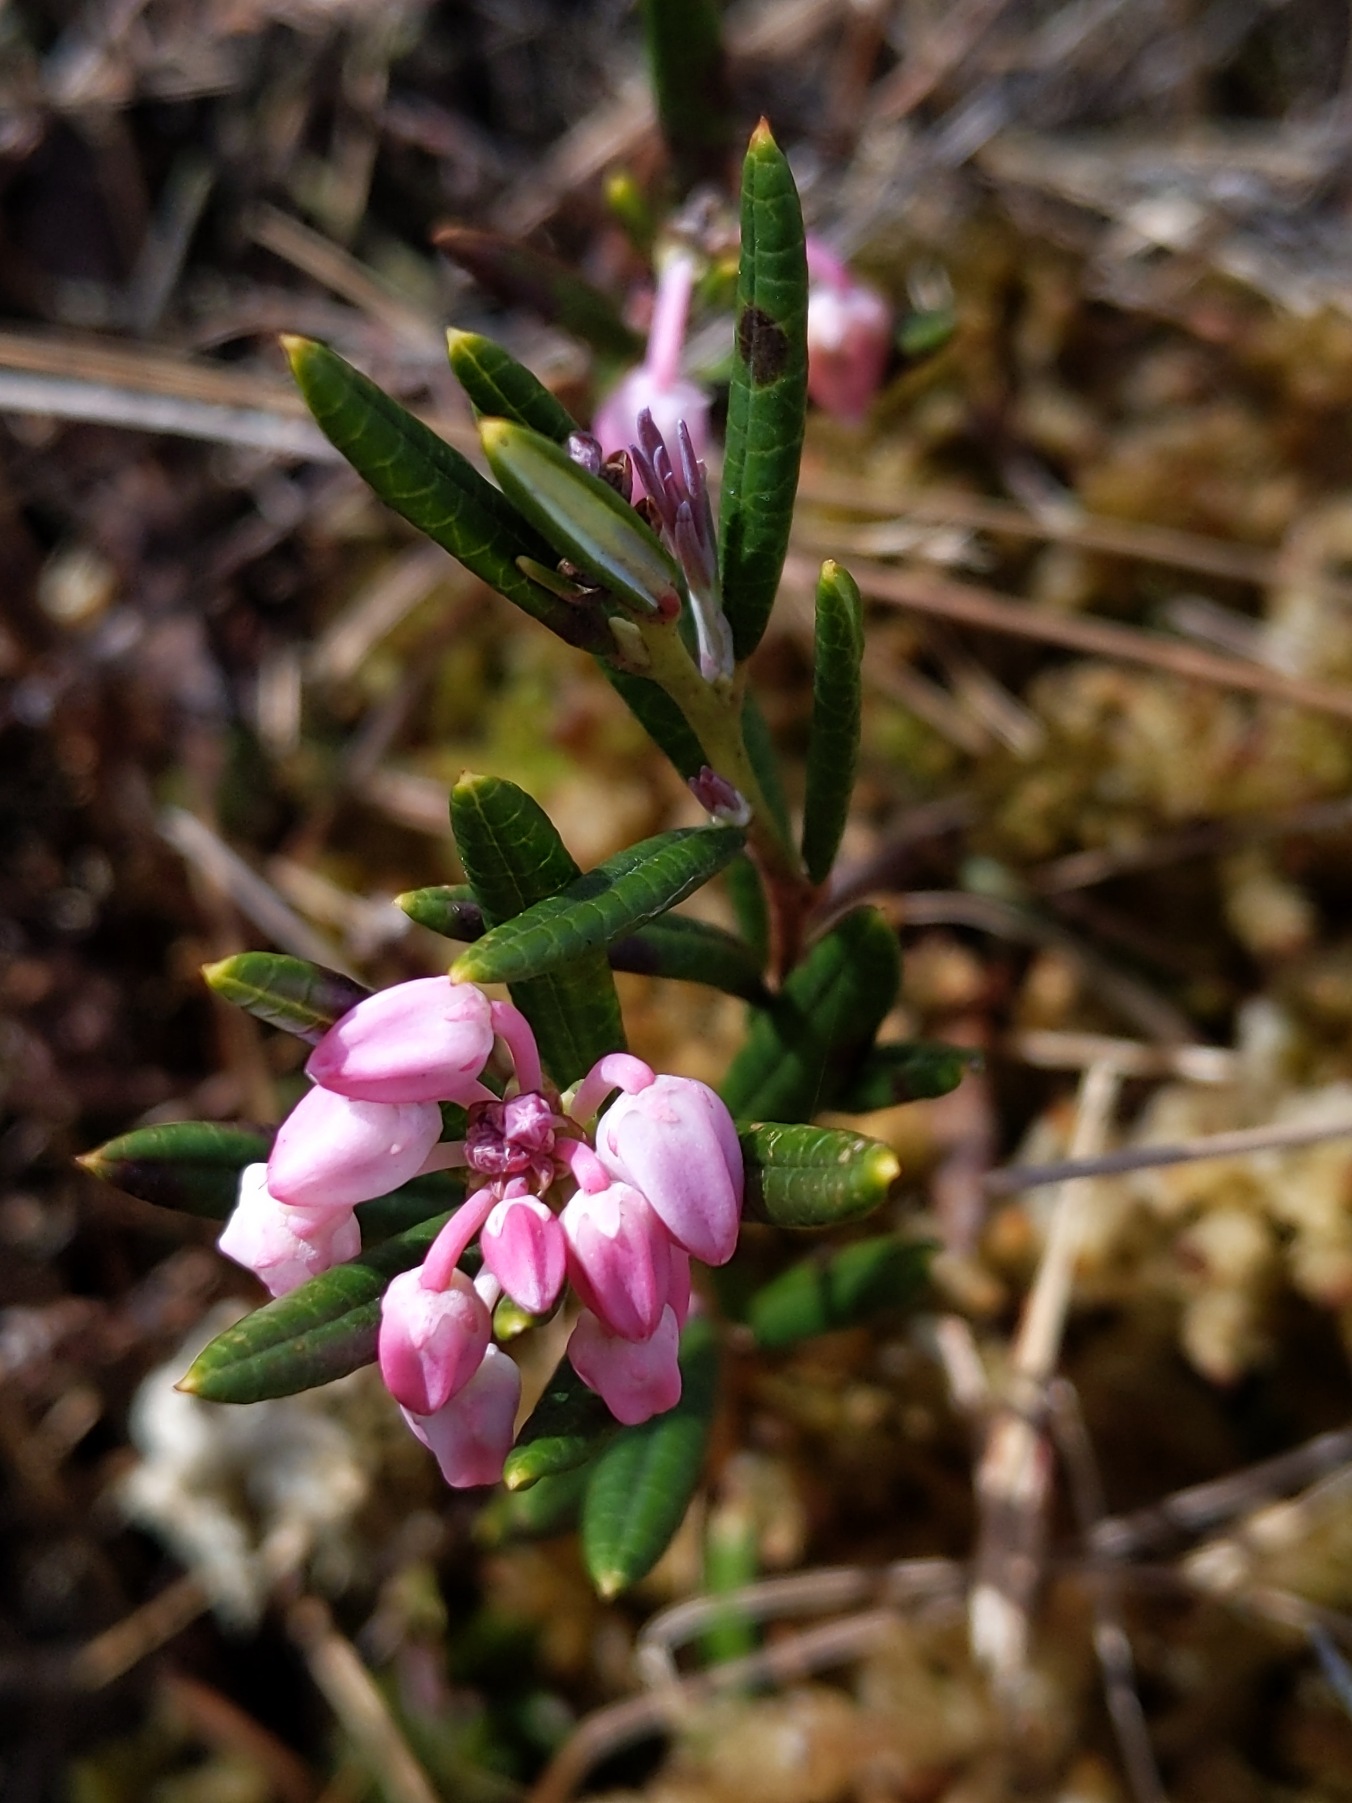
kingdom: Plantae
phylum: Tracheophyta
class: Magnoliopsida
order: Ericales
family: Ericaceae
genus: Andromeda
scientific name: Andromeda polifolia
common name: Rosmarinlyng
